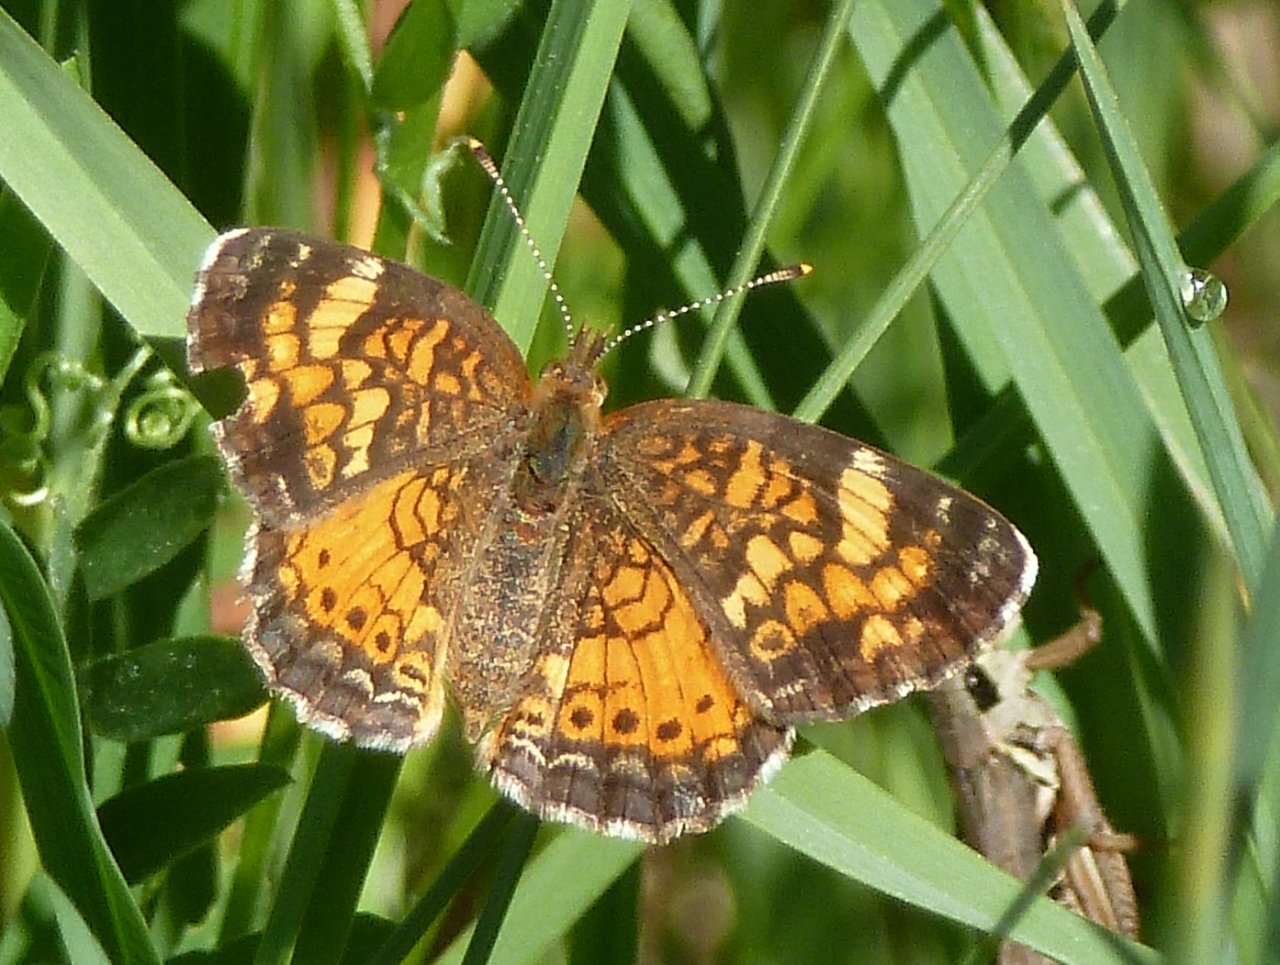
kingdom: Animalia
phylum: Arthropoda
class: Insecta
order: Lepidoptera
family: Nymphalidae
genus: Phyciodes
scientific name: Phyciodes tharos
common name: Northern Crescent
